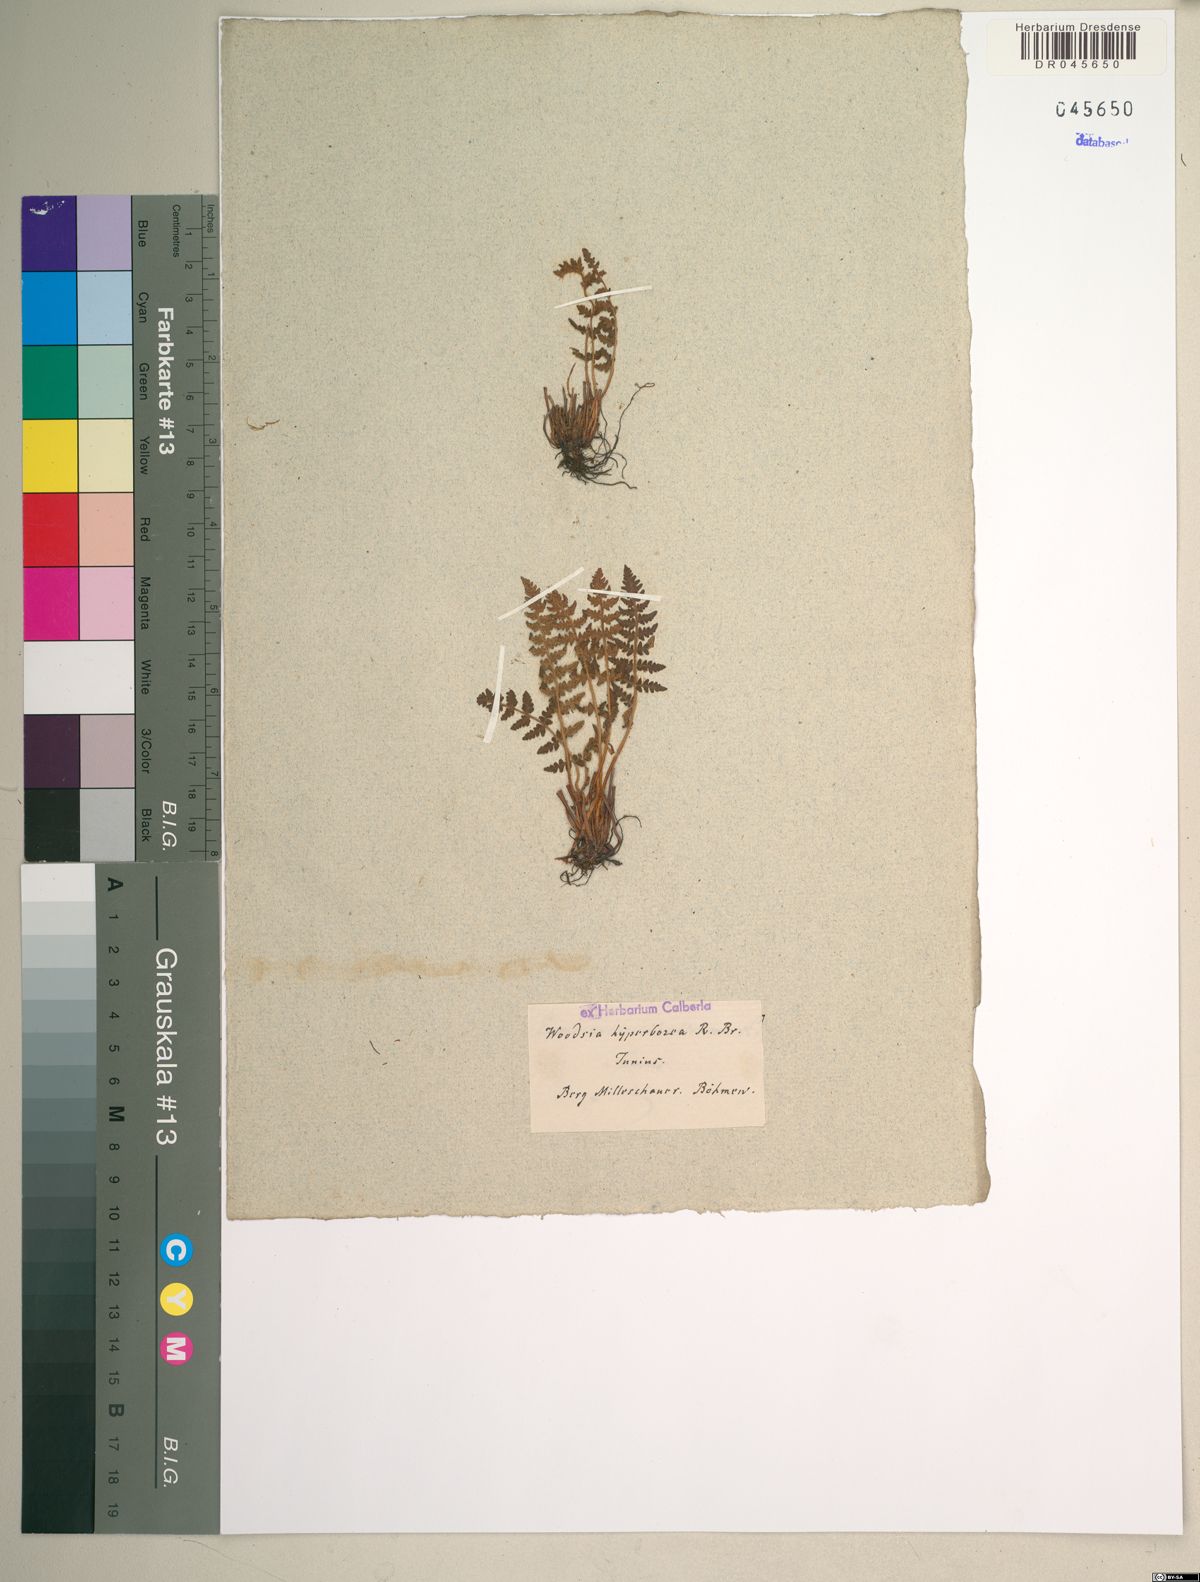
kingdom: Plantae
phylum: Tracheophyta
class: Polypodiopsida
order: Polypodiales
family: Woodsiaceae
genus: Woodsia
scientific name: Woodsia ilvensis
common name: Fragrant woodsia
